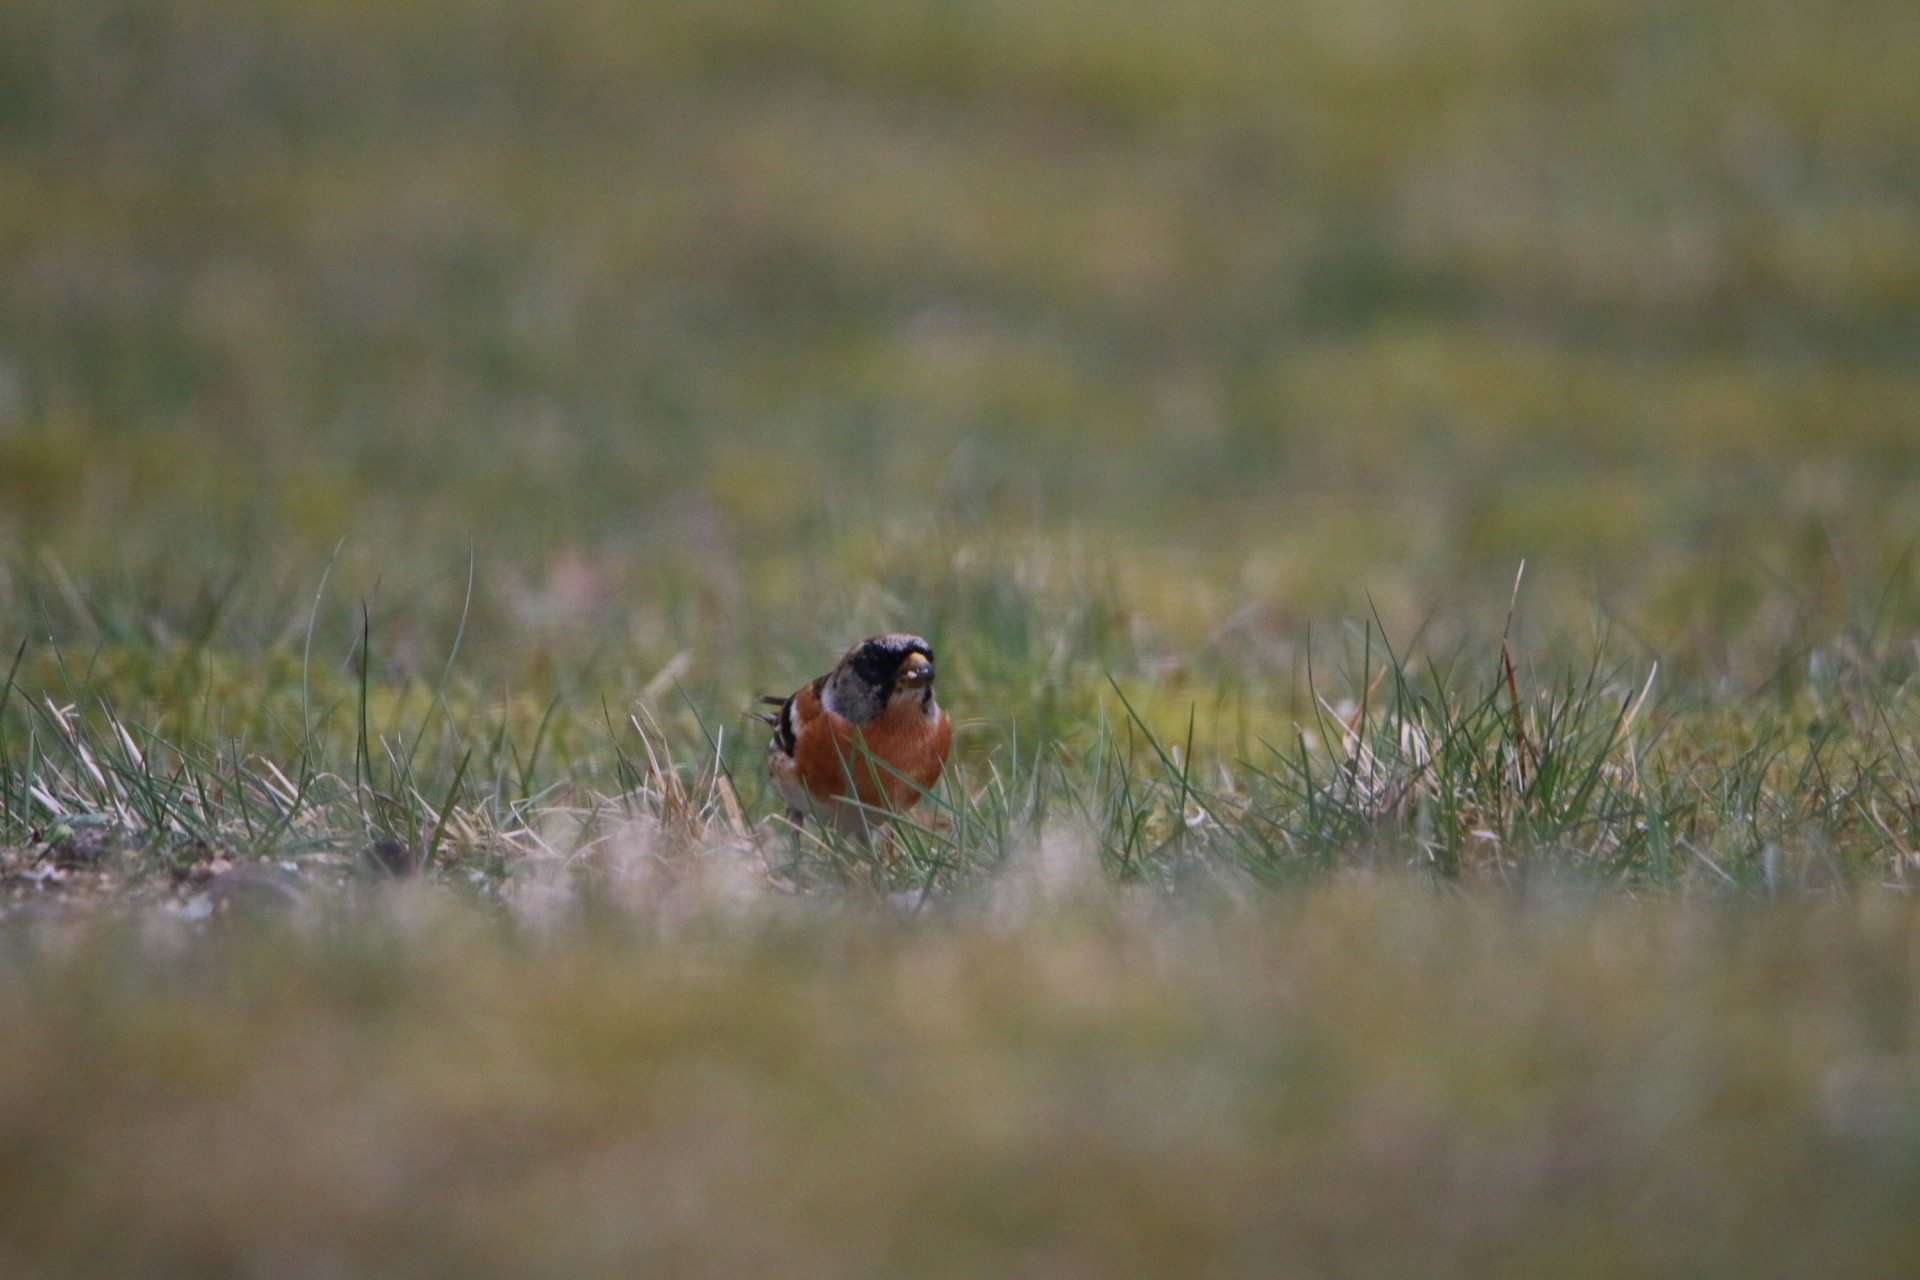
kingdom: Animalia
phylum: Chordata
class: Aves
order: Passeriformes
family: Fringillidae
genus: Fringilla
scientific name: Fringilla montifringilla
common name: Kvækerfinke
